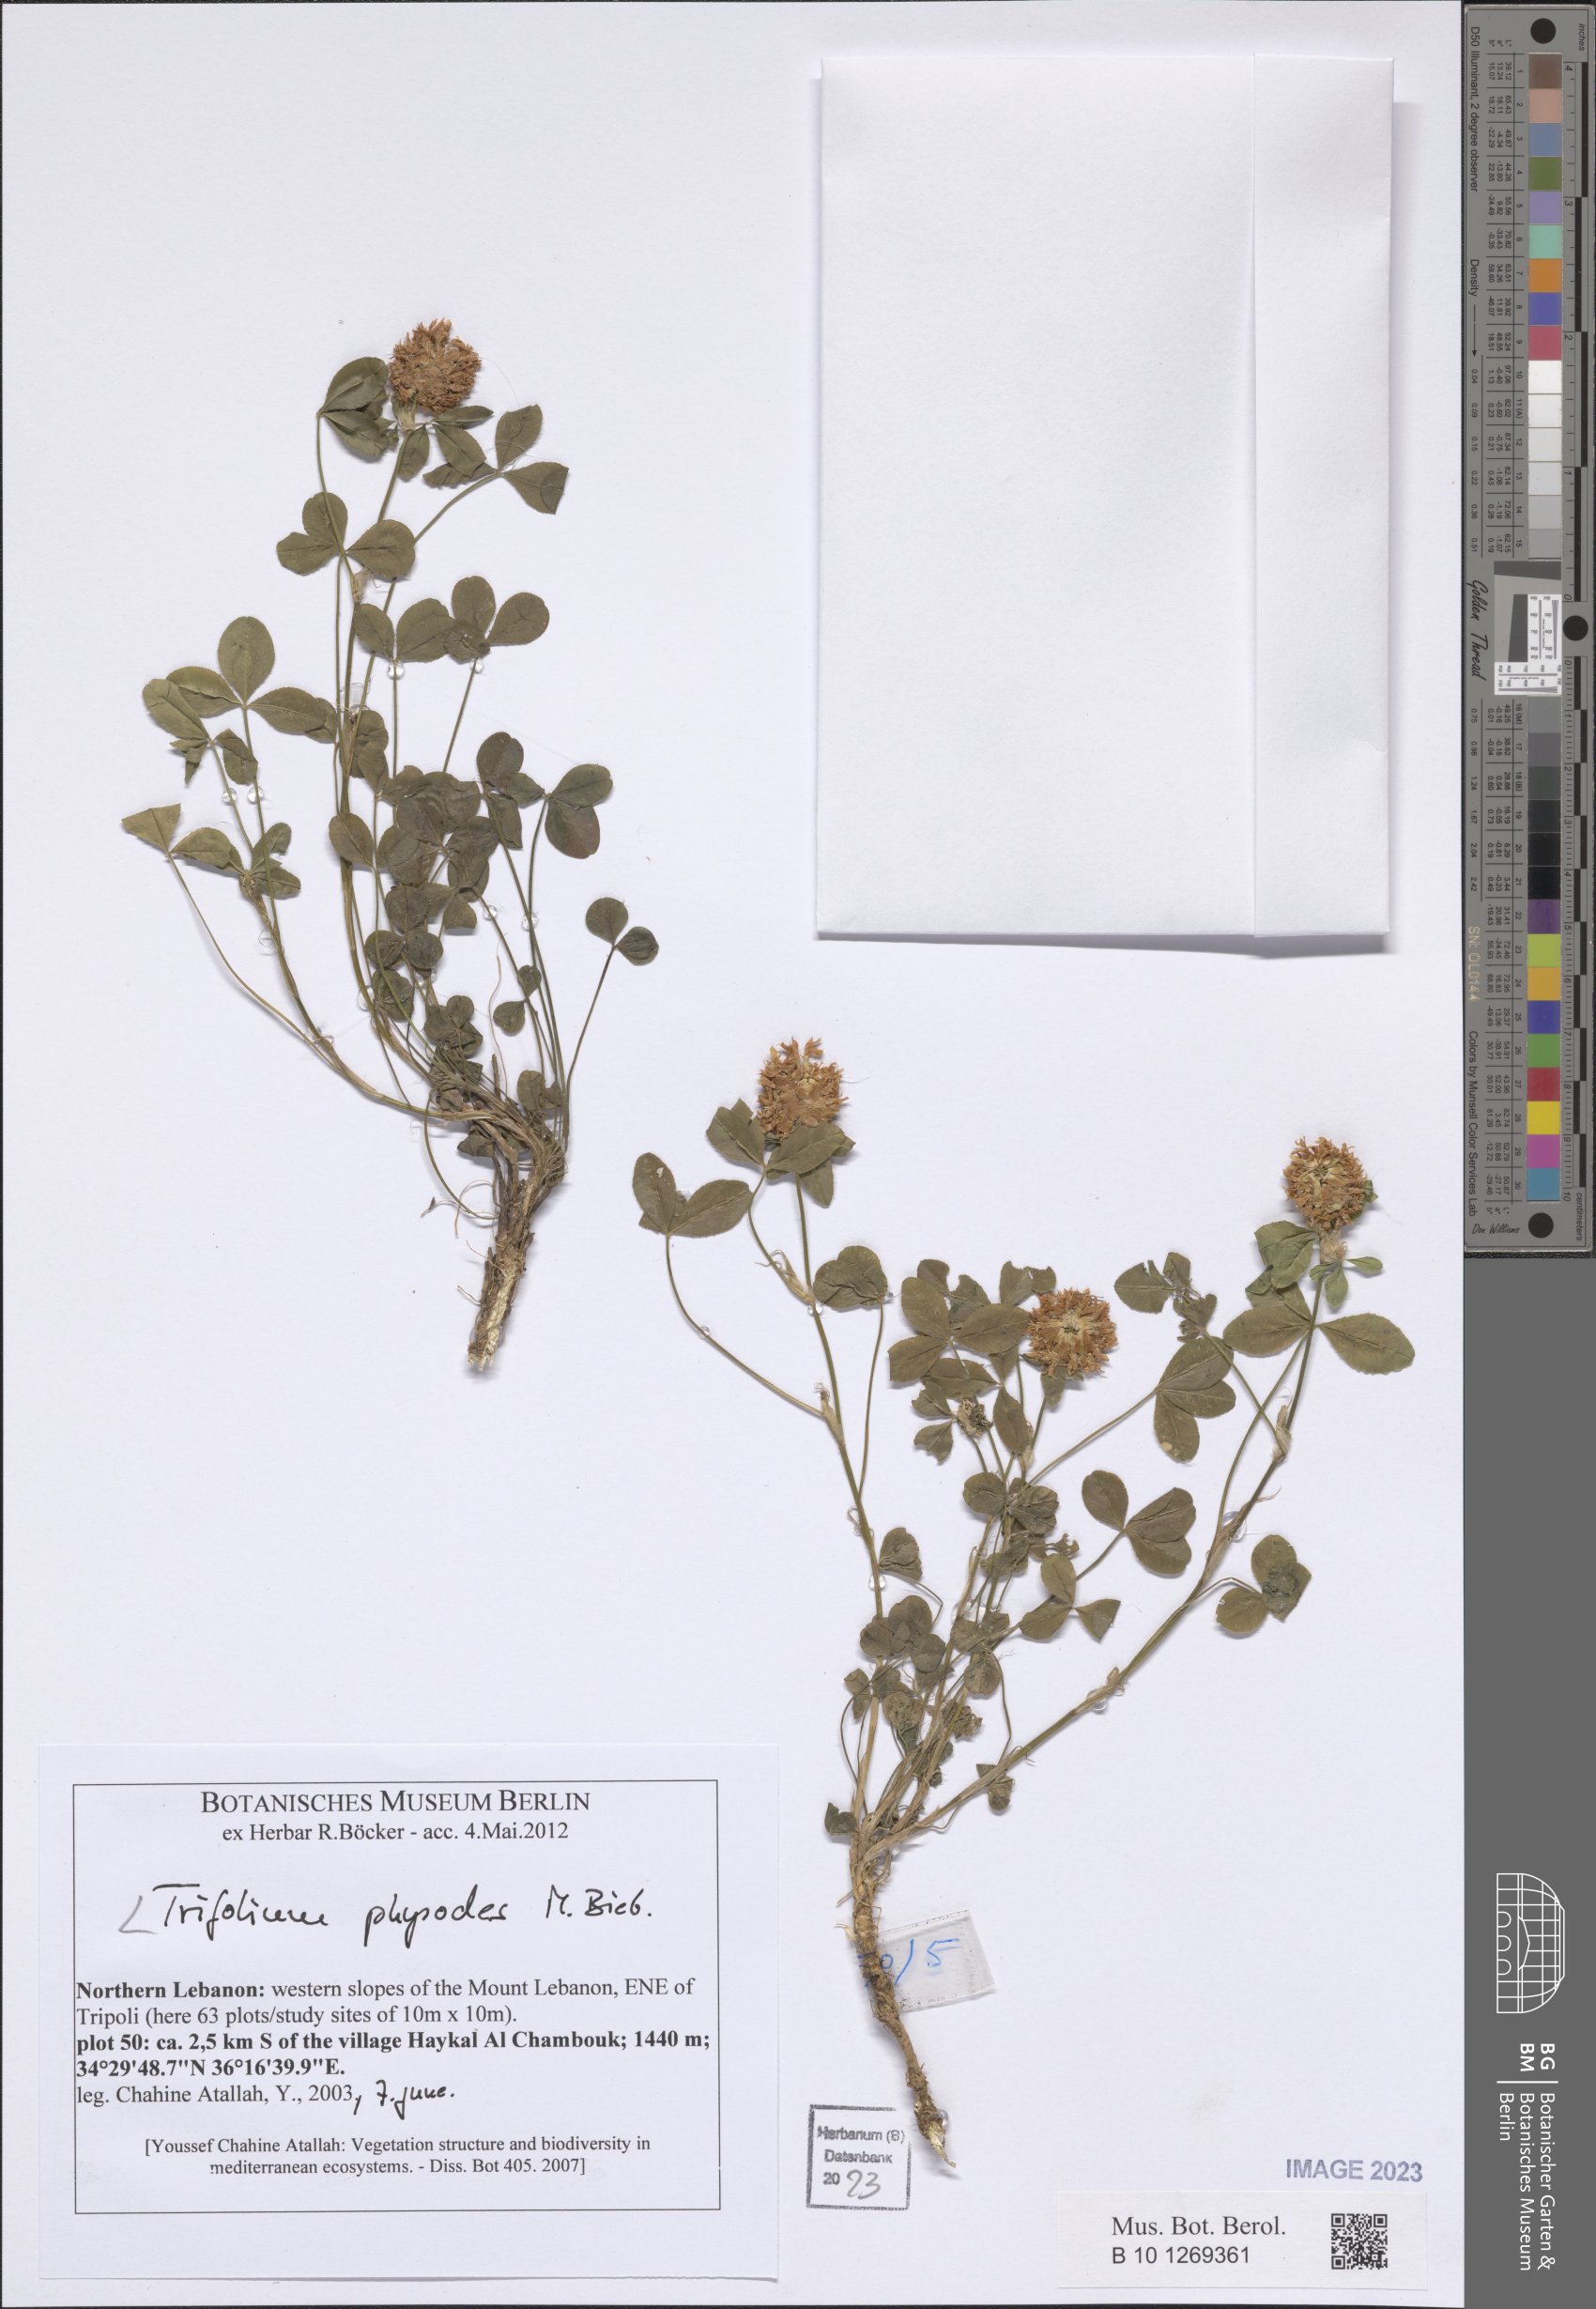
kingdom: Plantae
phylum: Tracheophyta
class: Magnoliopsida
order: Fabales
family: Fabaceae
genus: Trifolium
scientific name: Trifolium physodes
